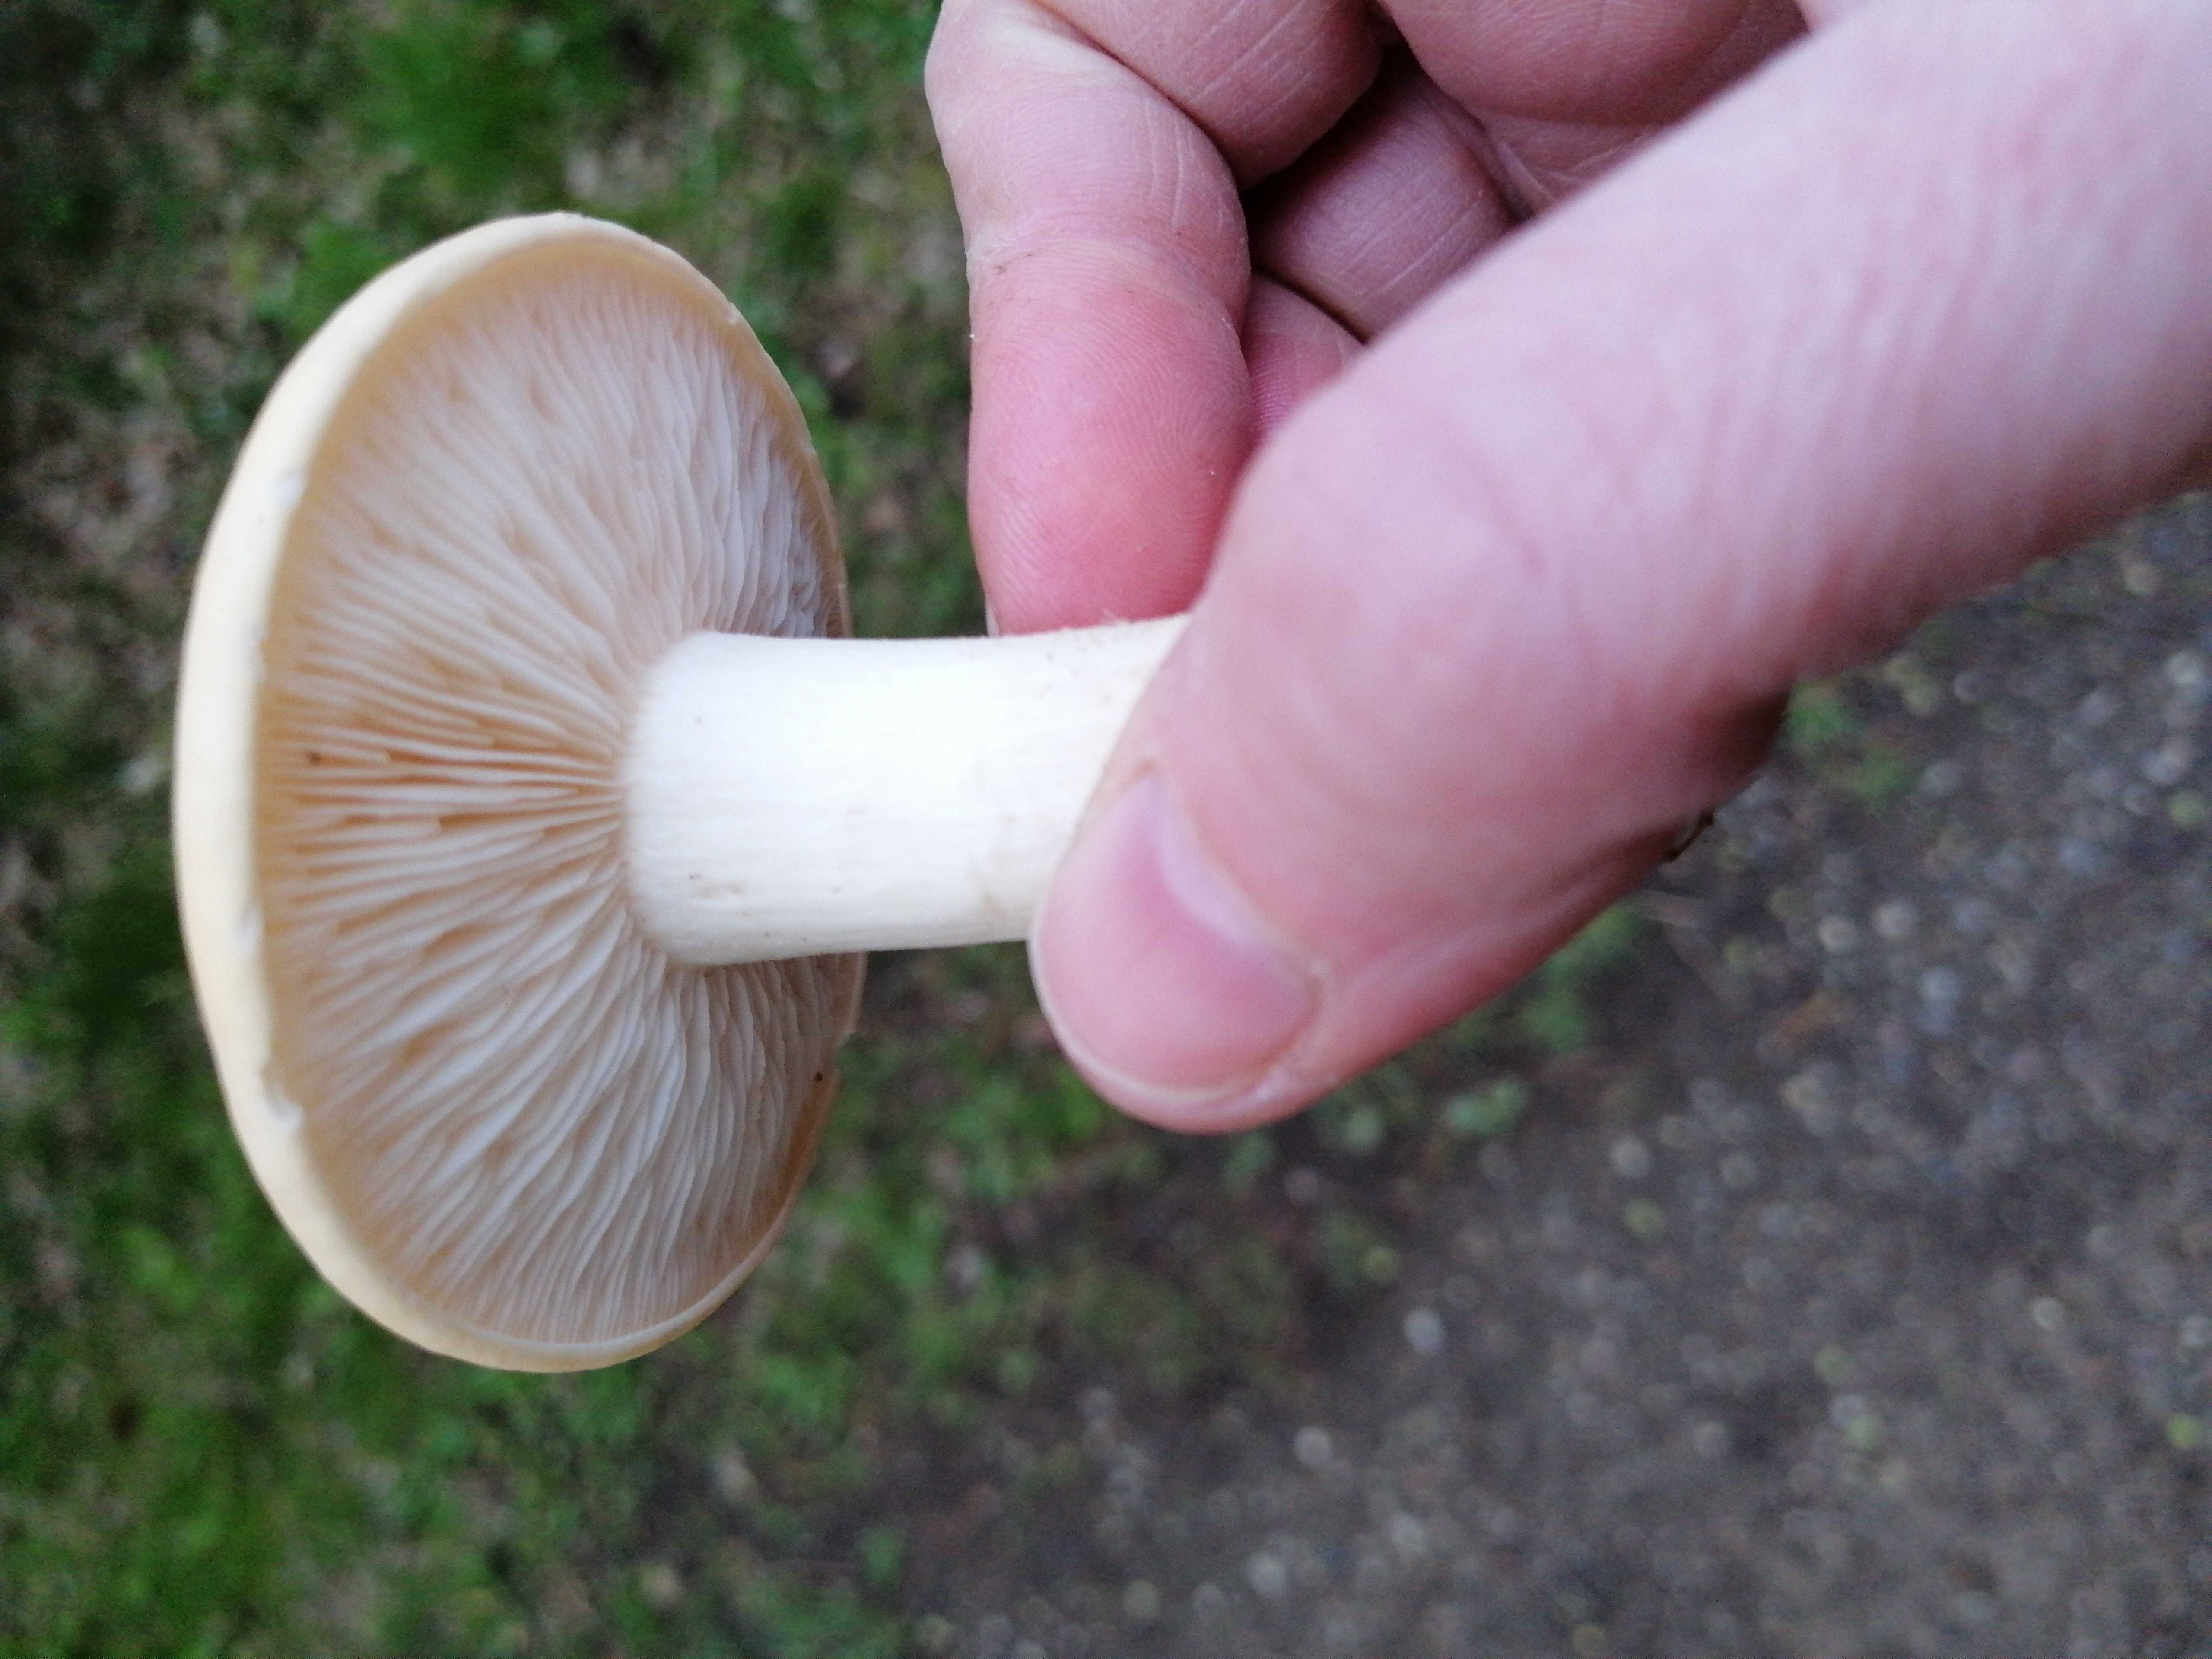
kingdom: Fungi
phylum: Basidiomycota
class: Agaricomycetes
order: Agaricales
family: Lyophyllaceae
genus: Calocybe
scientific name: Calocybe gambosa
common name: vårmusseron
